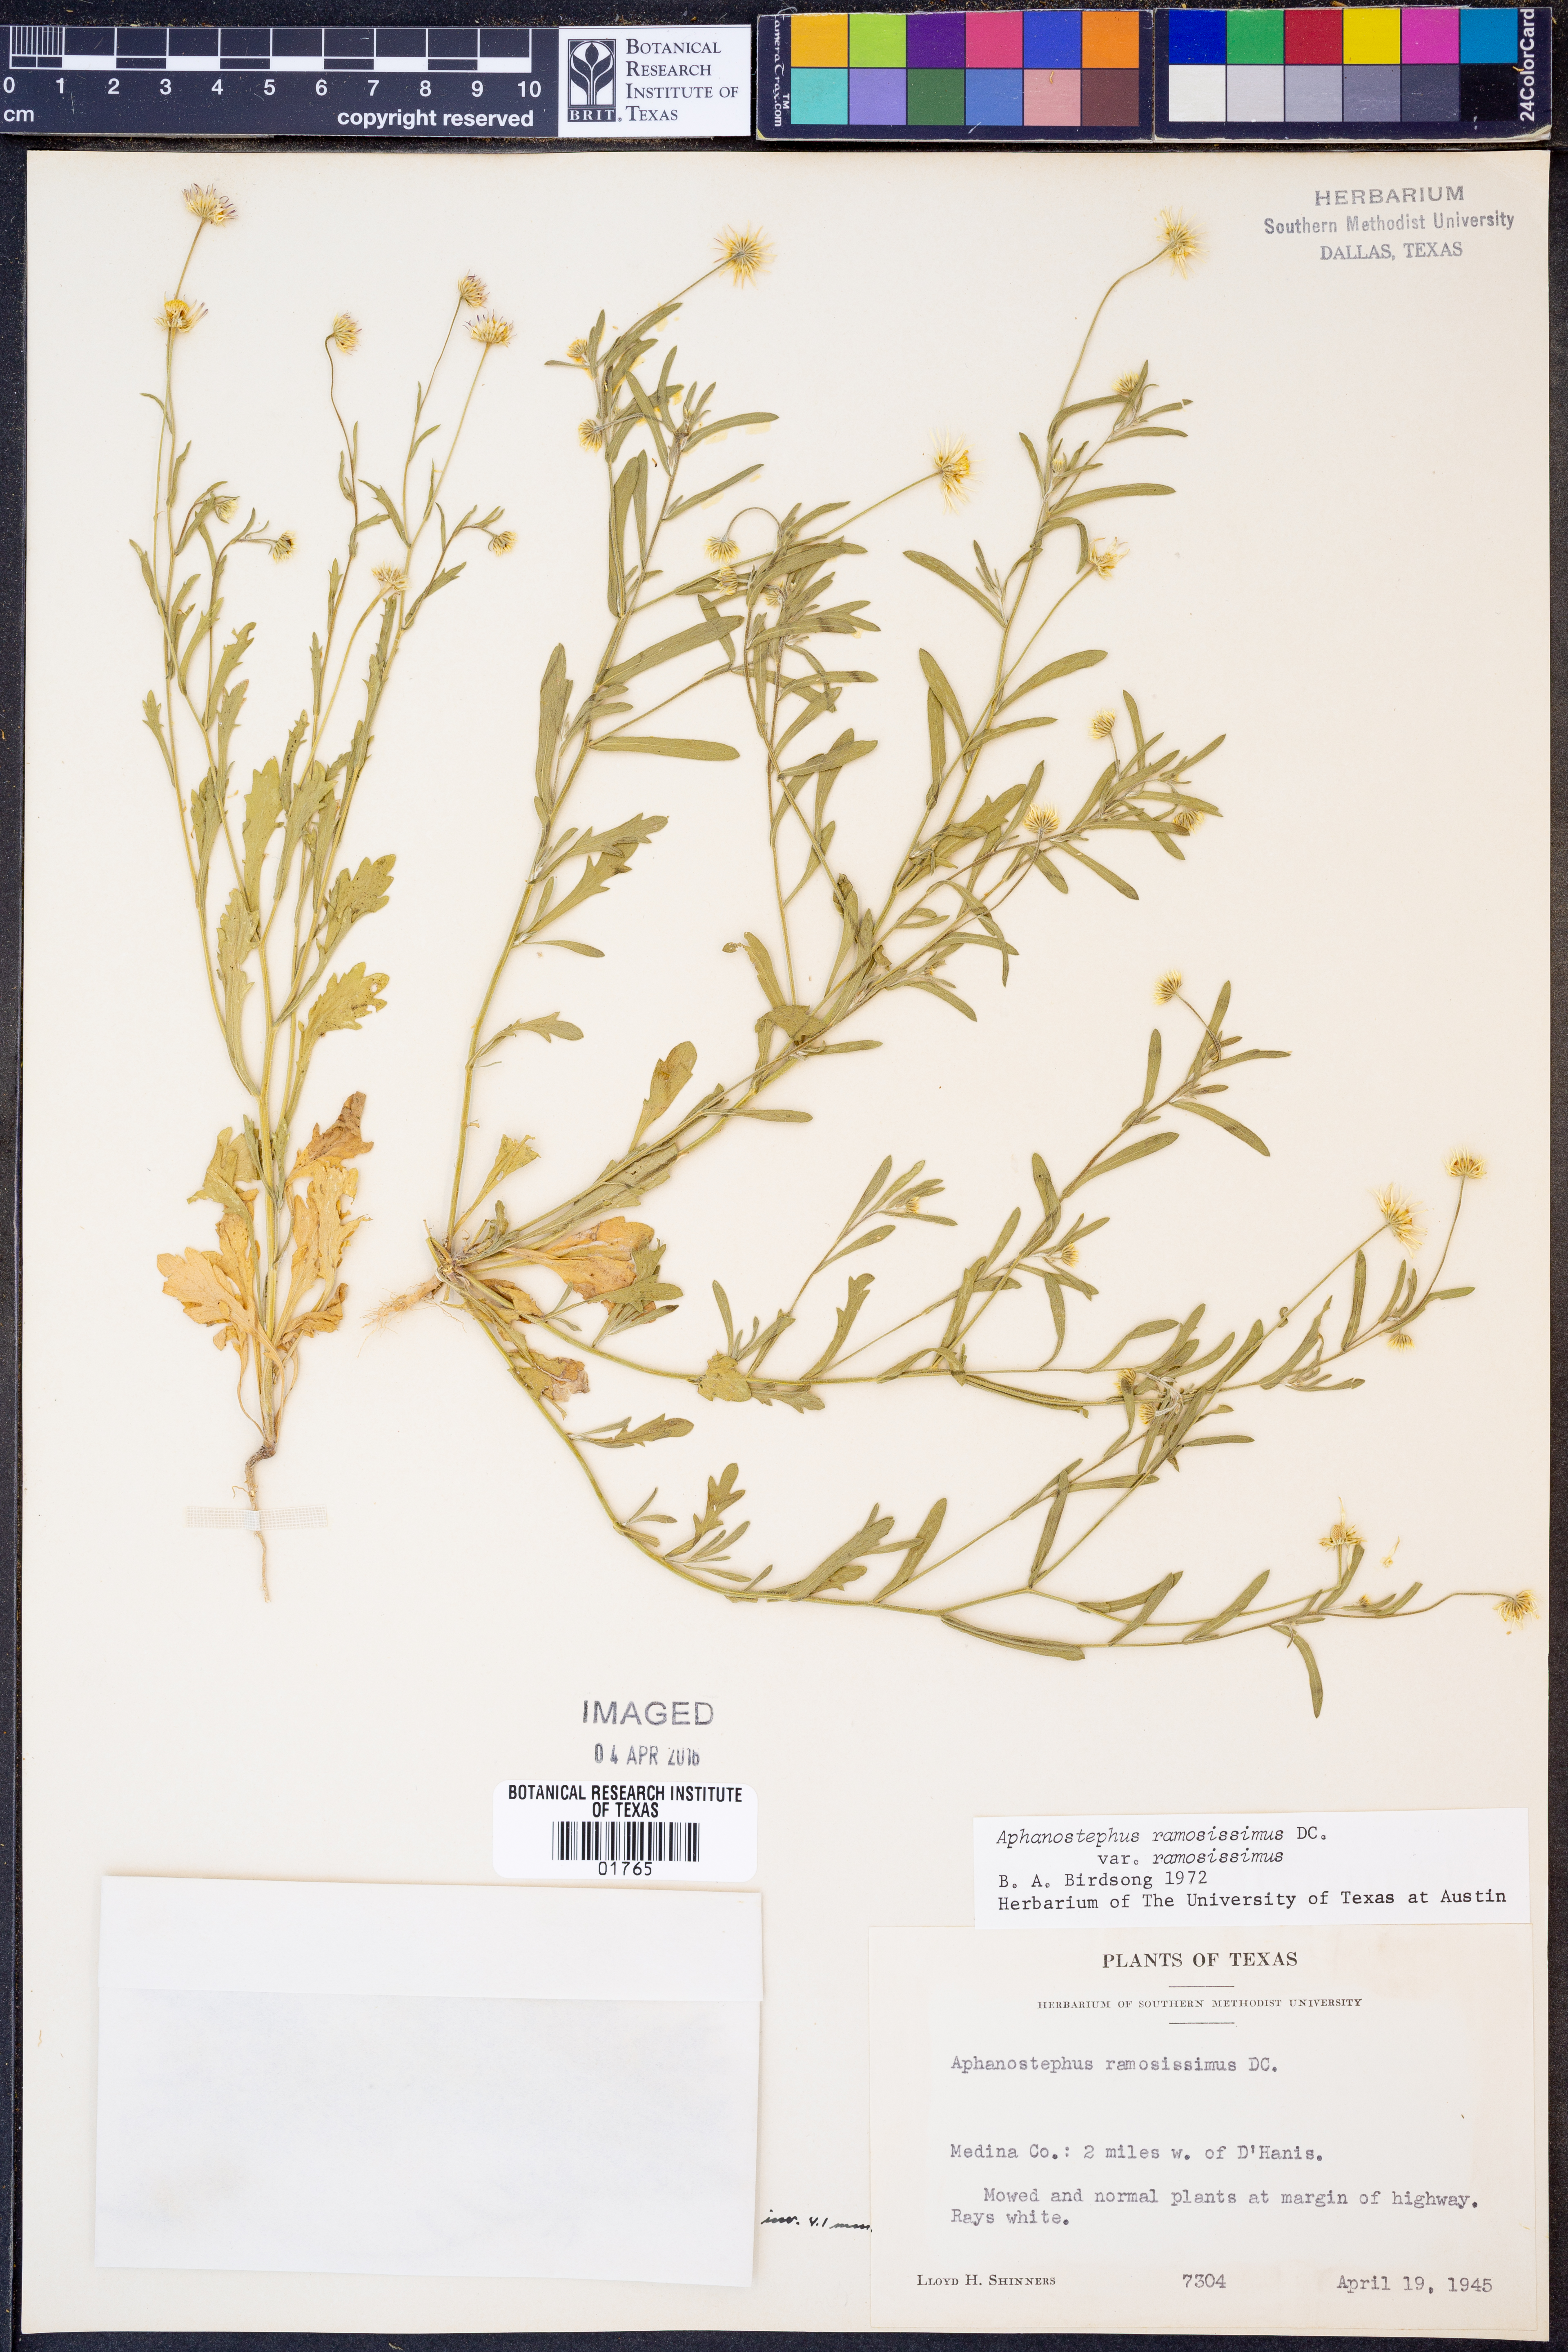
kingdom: Plantae
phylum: Tracheophyta
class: Magnoliopsida
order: Asterales
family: Asteraceae
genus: Aphanostephus
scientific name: Aphanostephus ramosissimus
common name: Plains lazy daisy
